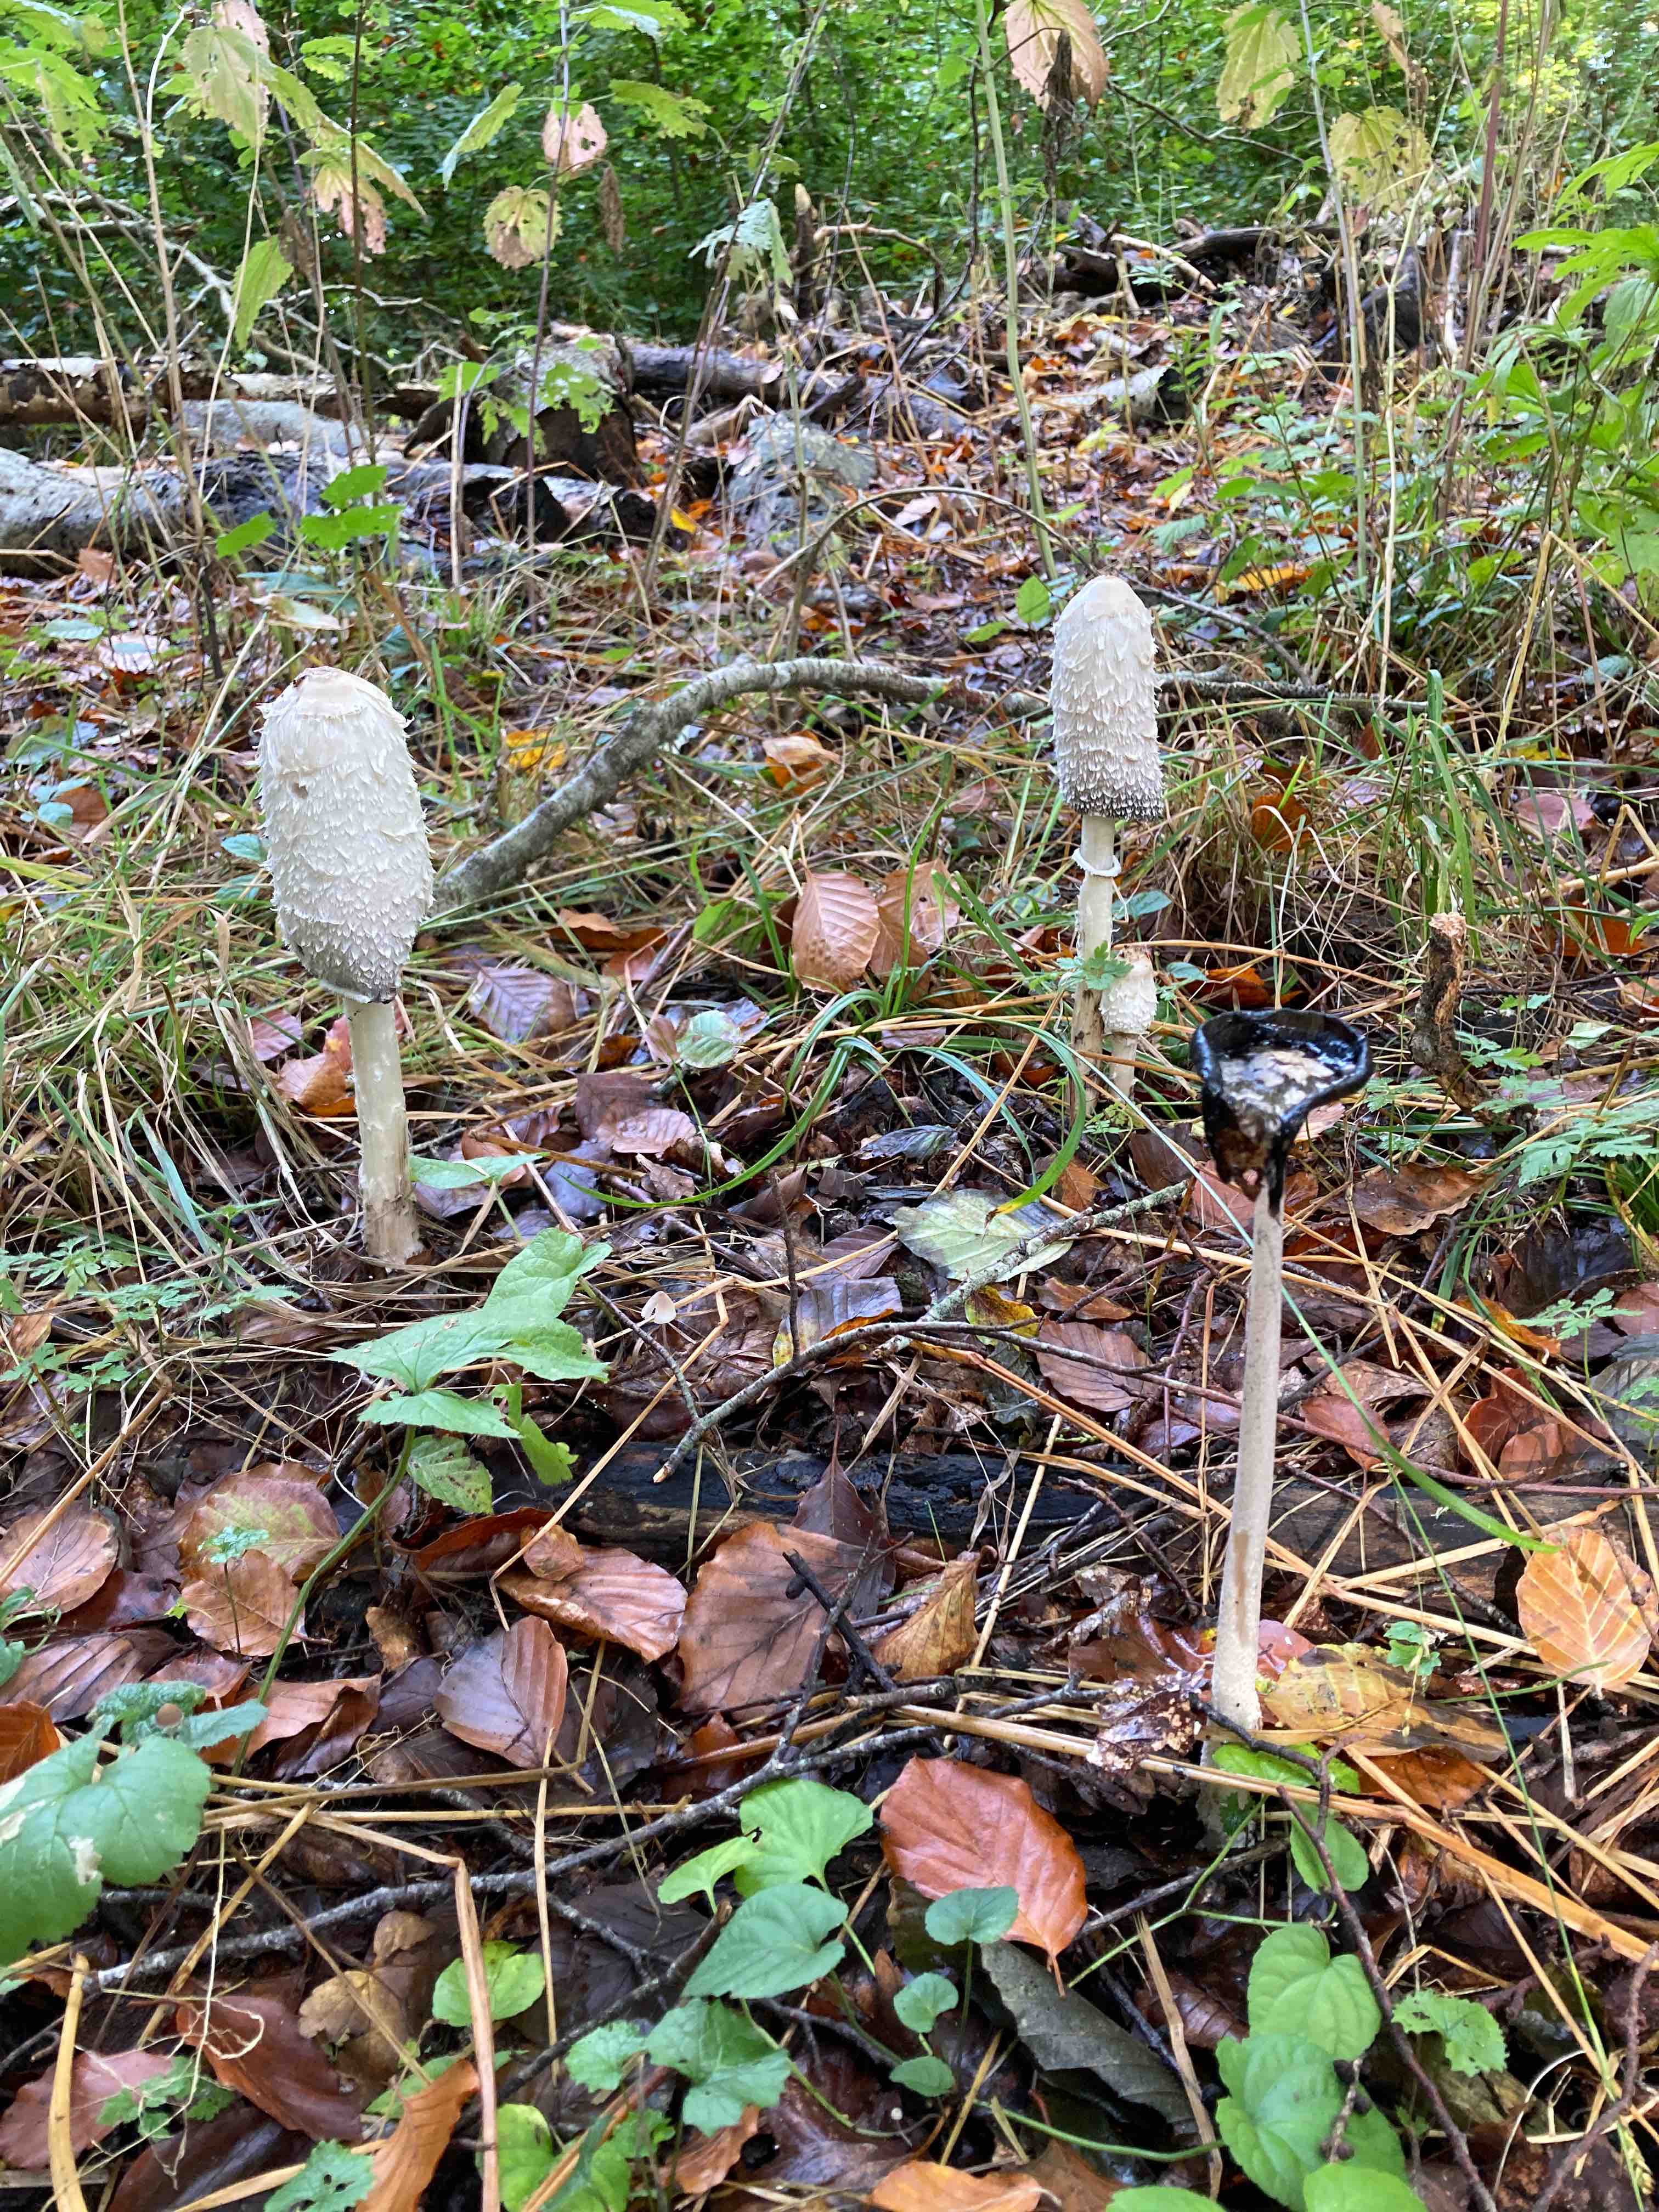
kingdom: Fungi
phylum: Basidiomycota
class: Agaricomycetes
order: Agaricales
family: Agaricaceae
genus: Coprinus
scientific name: Coprinus comatus
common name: stor parykhat
